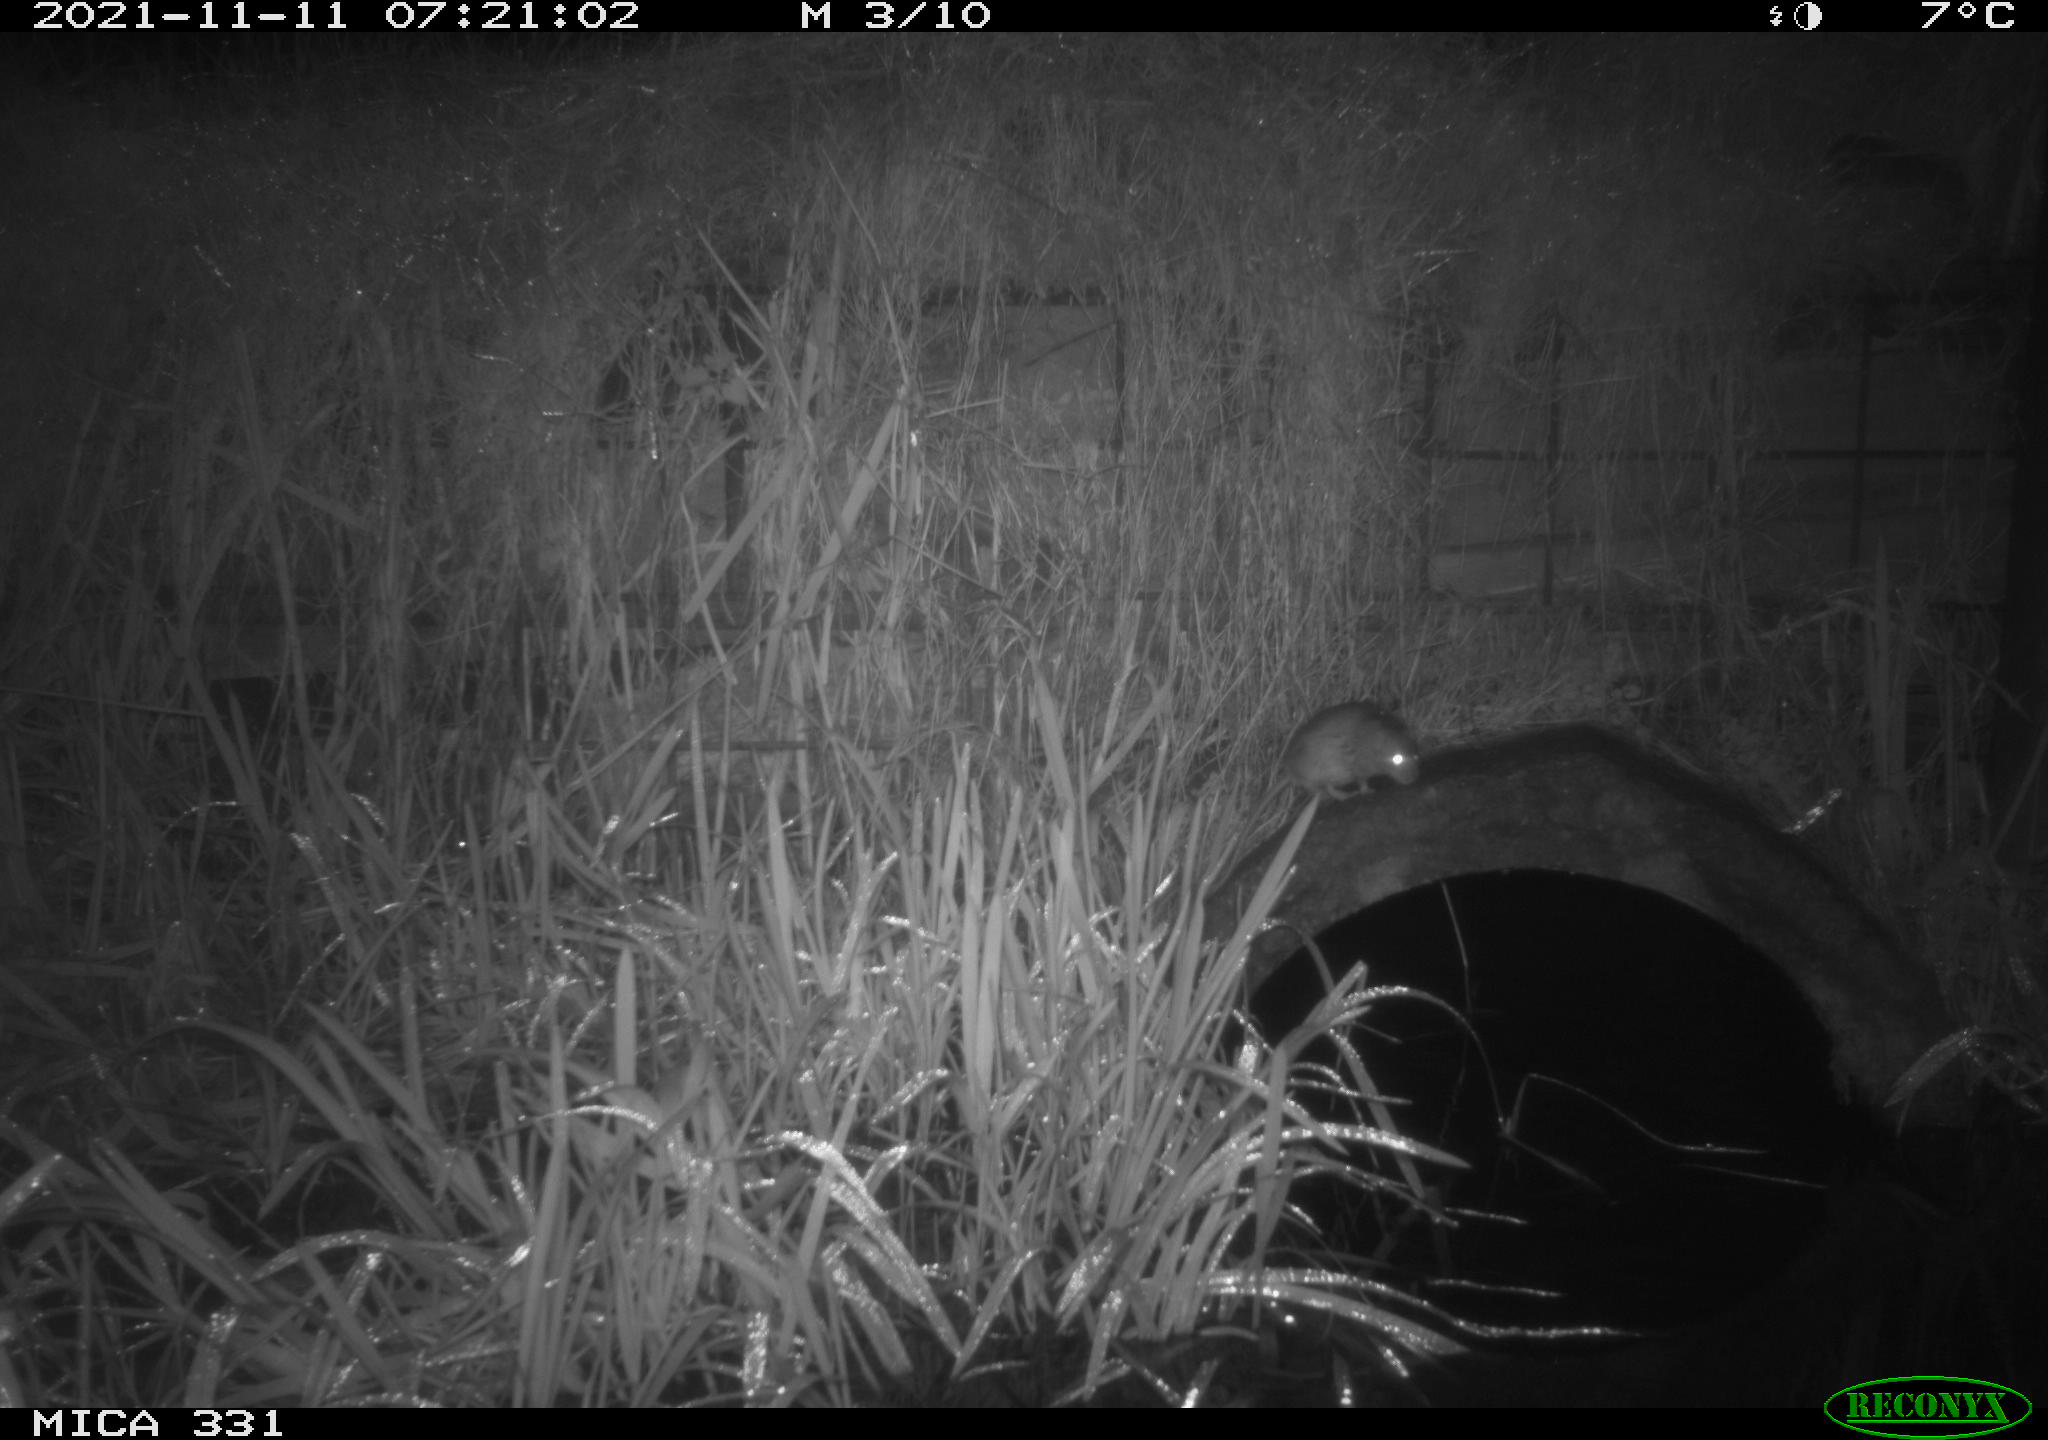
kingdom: Animalia
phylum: Chordata
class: Mammalia
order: Rodentia
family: Muridae
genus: Rattus
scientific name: Rattus norvegicus
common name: Brown rat
